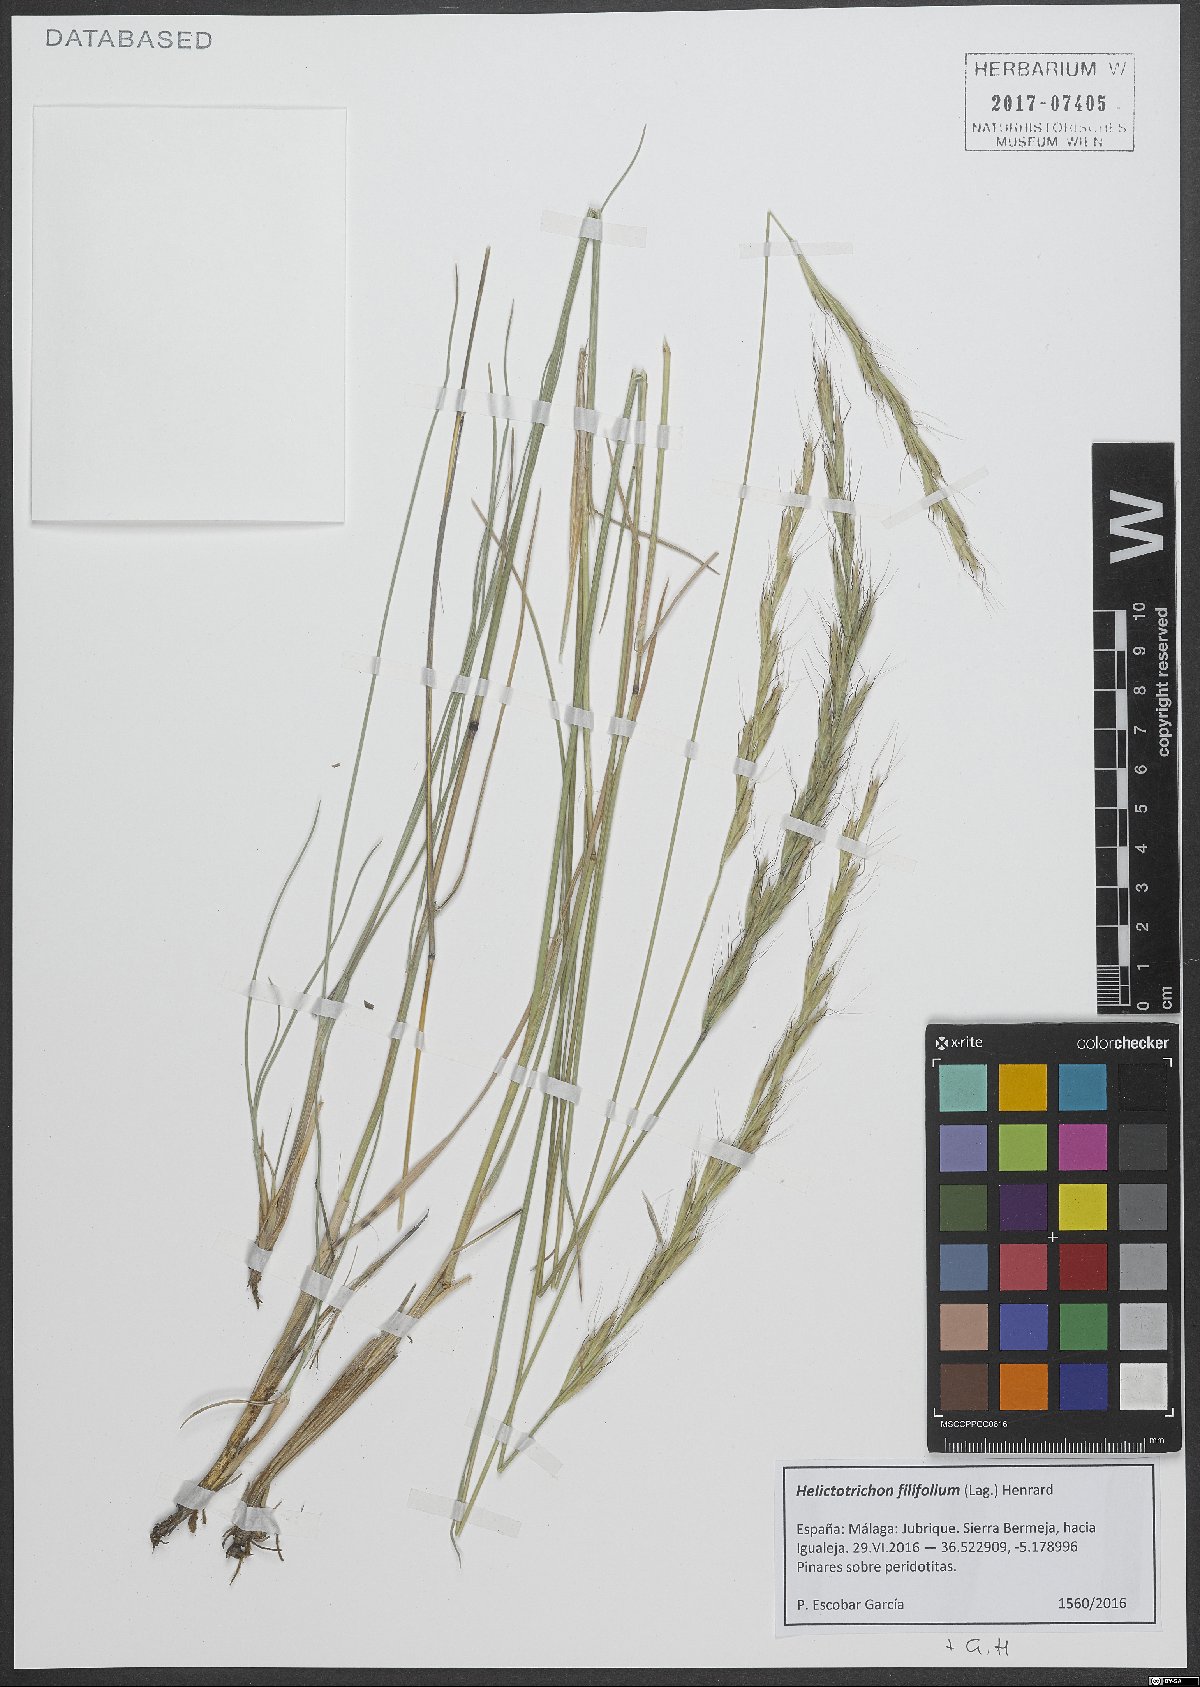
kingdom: Plantae
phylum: Tracheophyta
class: Liliopsida
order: Poales
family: Poaceae
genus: Helictotrichon
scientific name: Helictotrichon filifolium
